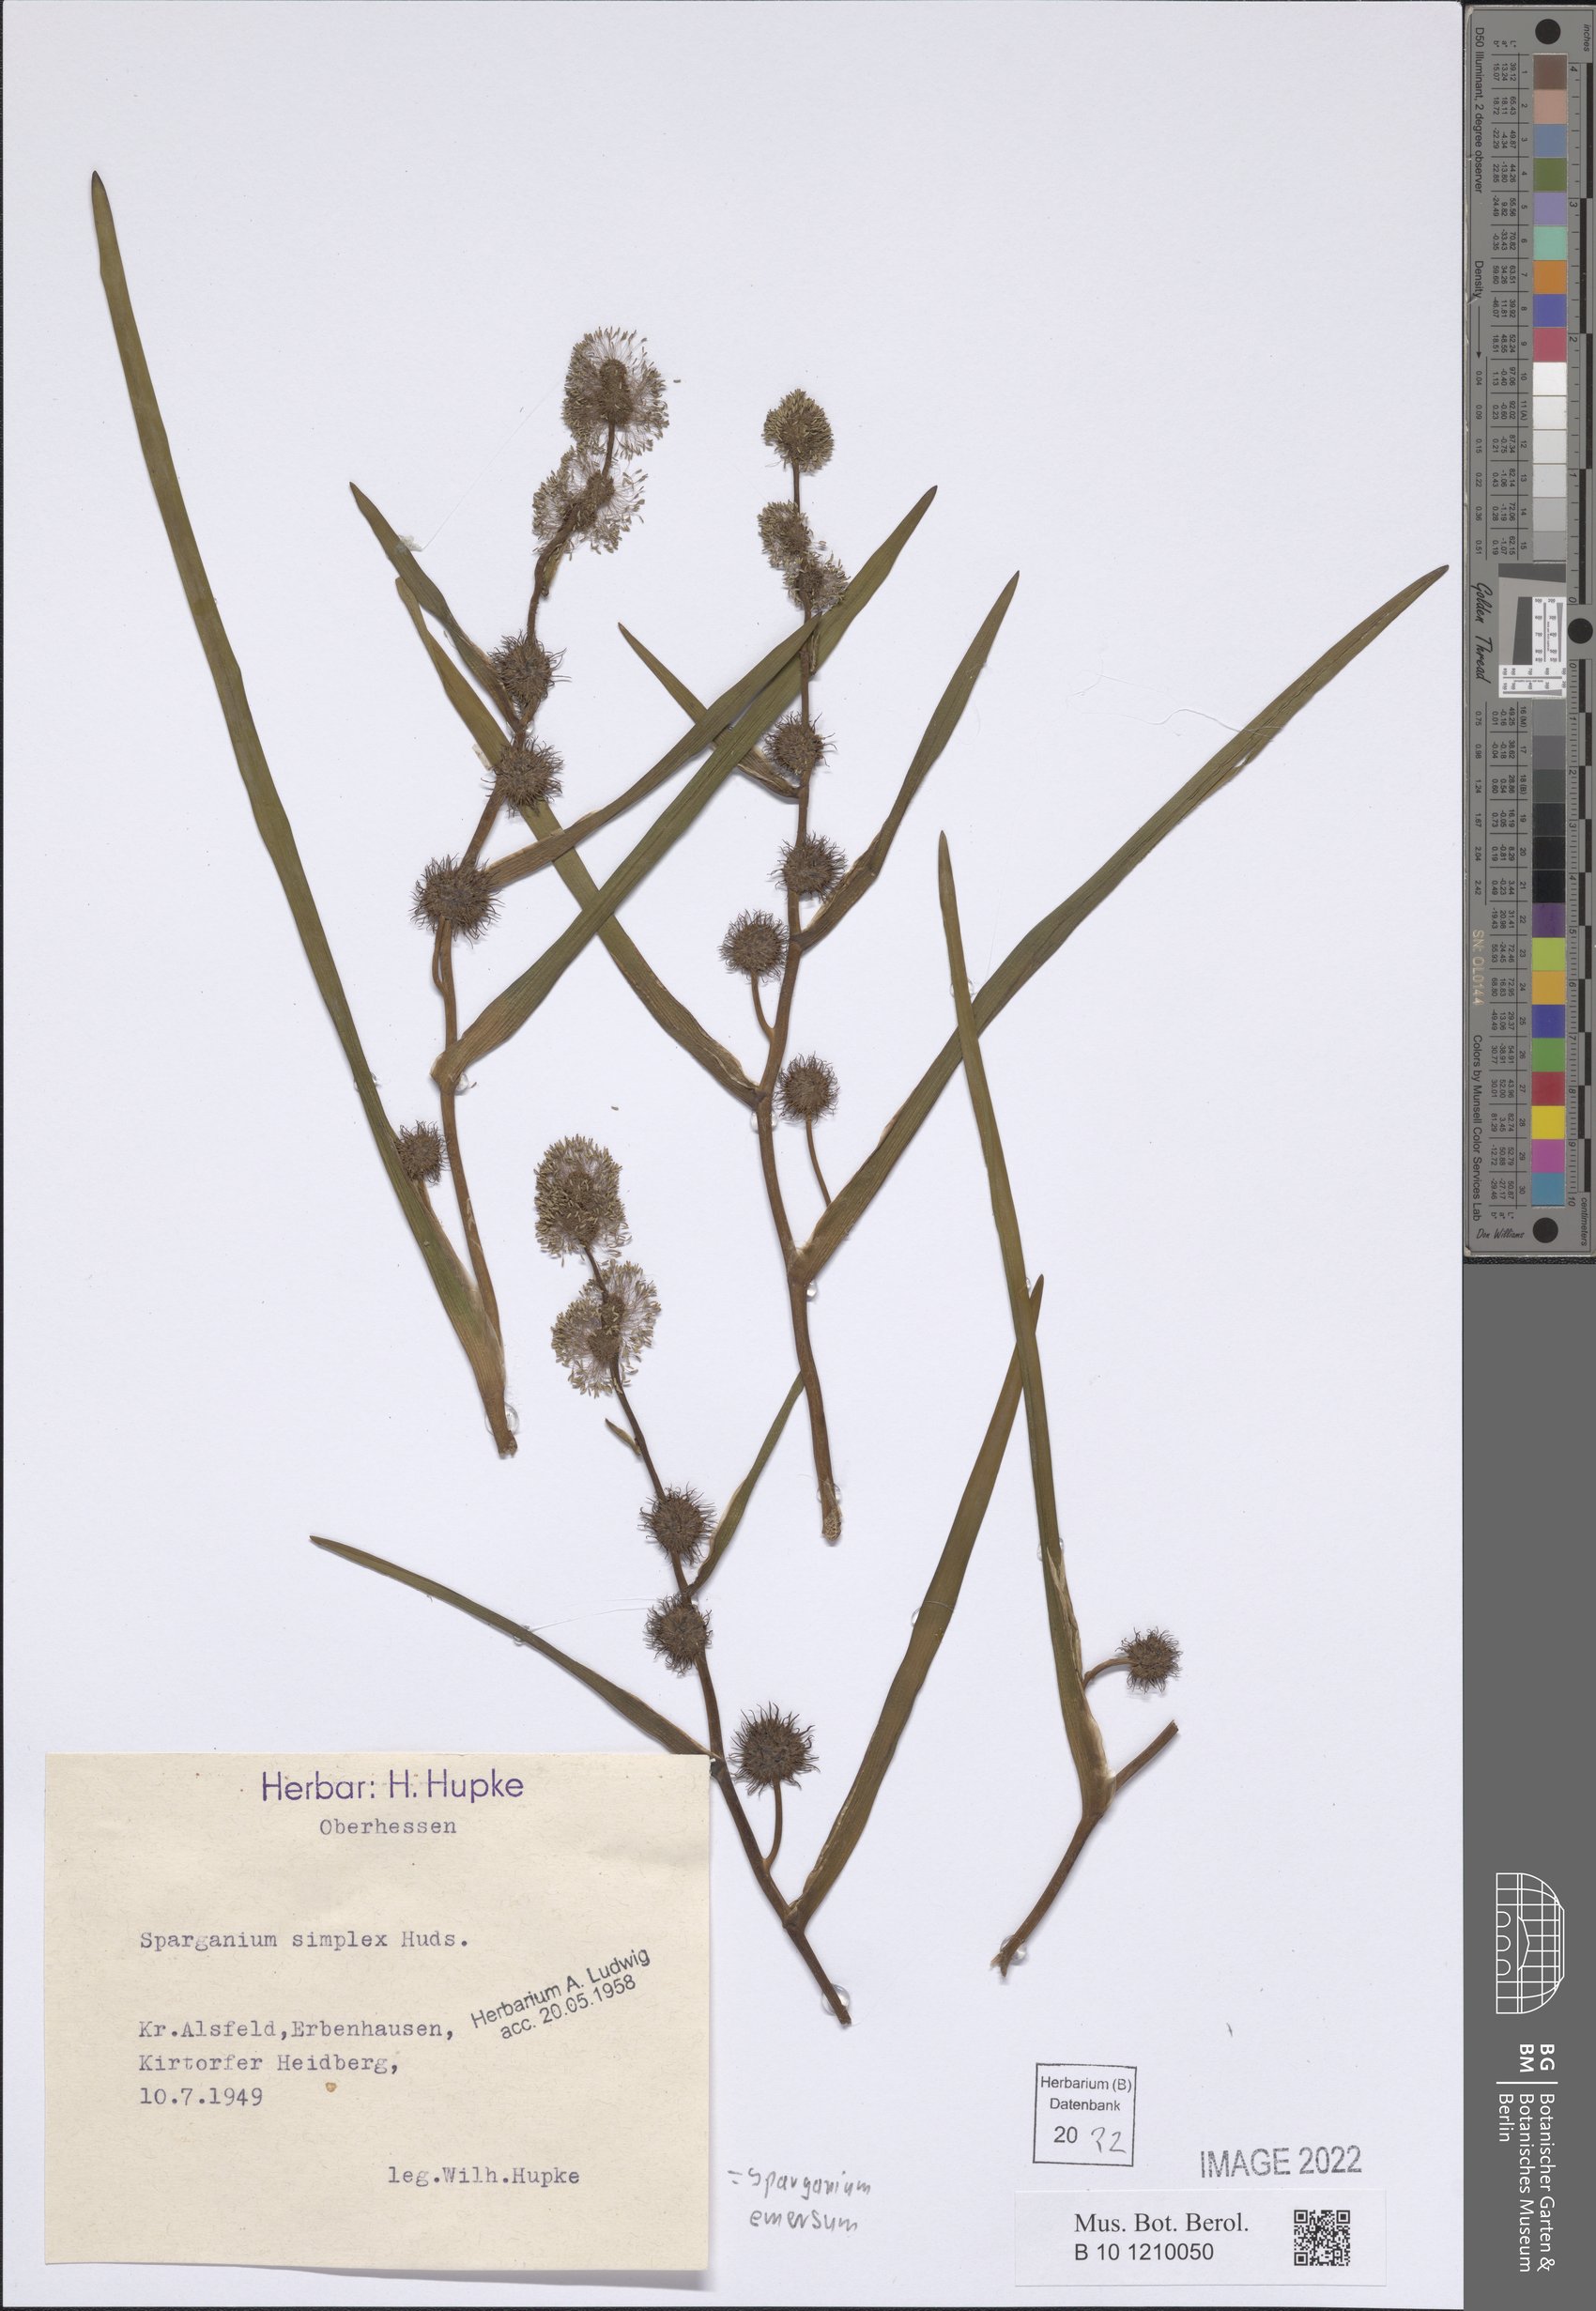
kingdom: Plantae
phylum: Tracheophyta
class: Liliopsida
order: Poales
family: Typhaceae
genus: Sparganium
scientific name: Sparganium emersum
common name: Unbranched bur-reed
